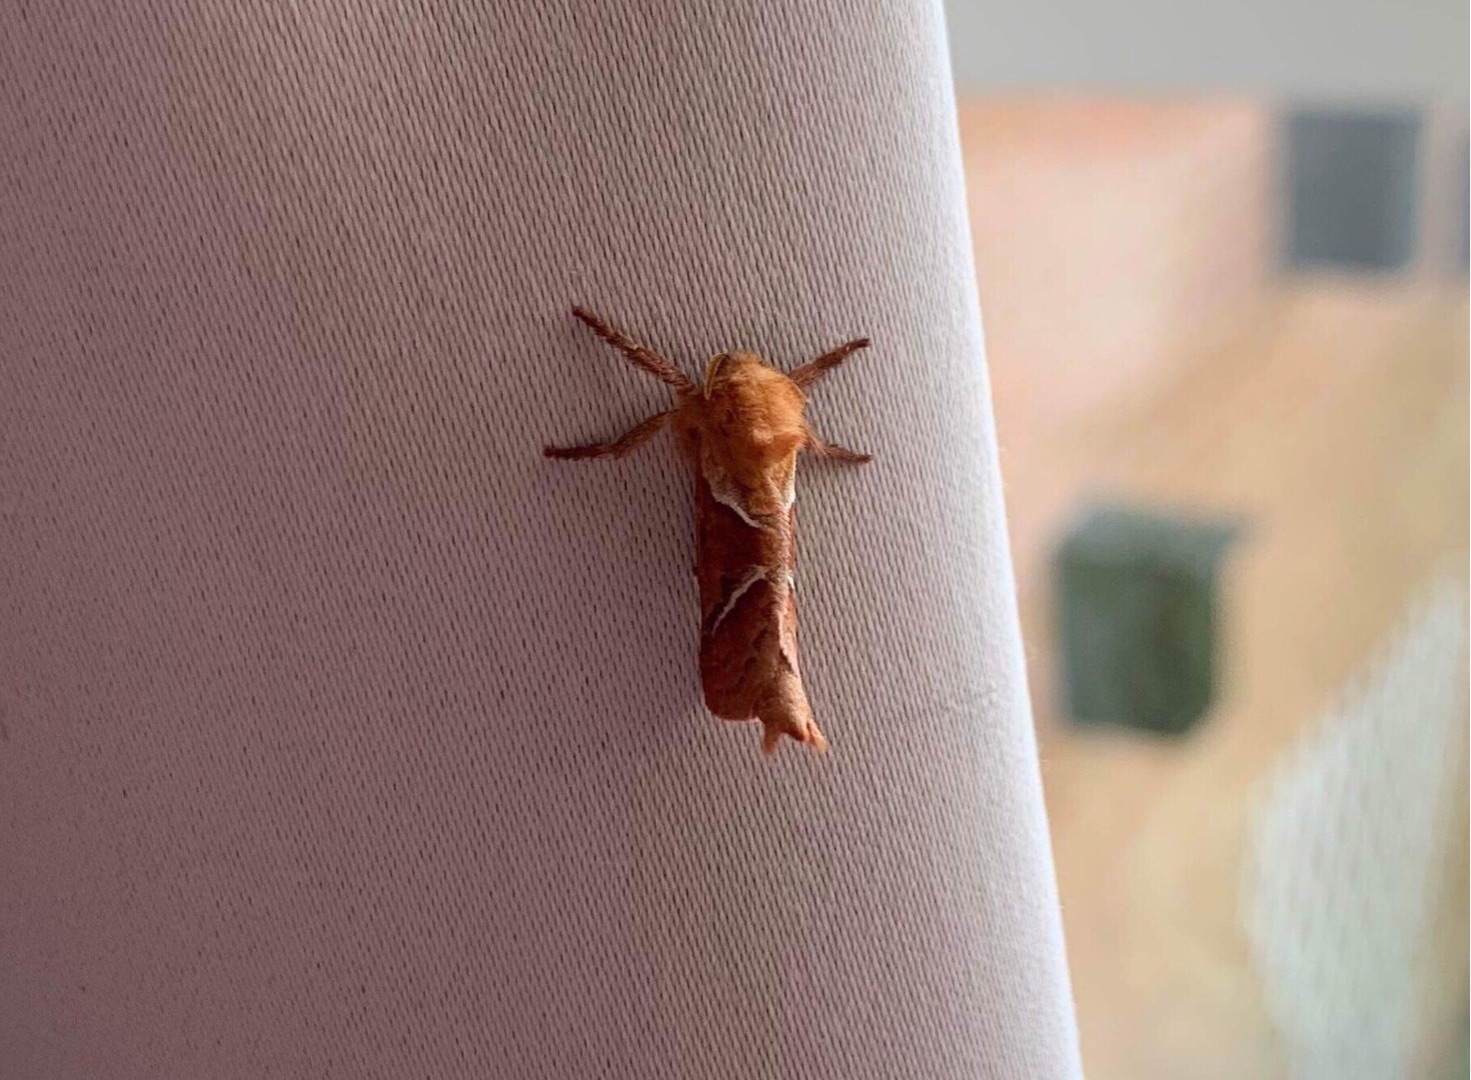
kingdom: Animalia
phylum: Arthropoda
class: Insecta
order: Lepidoptera
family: Hepialidae
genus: Triodia
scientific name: Triodia sylvina
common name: Skræpperodæder
